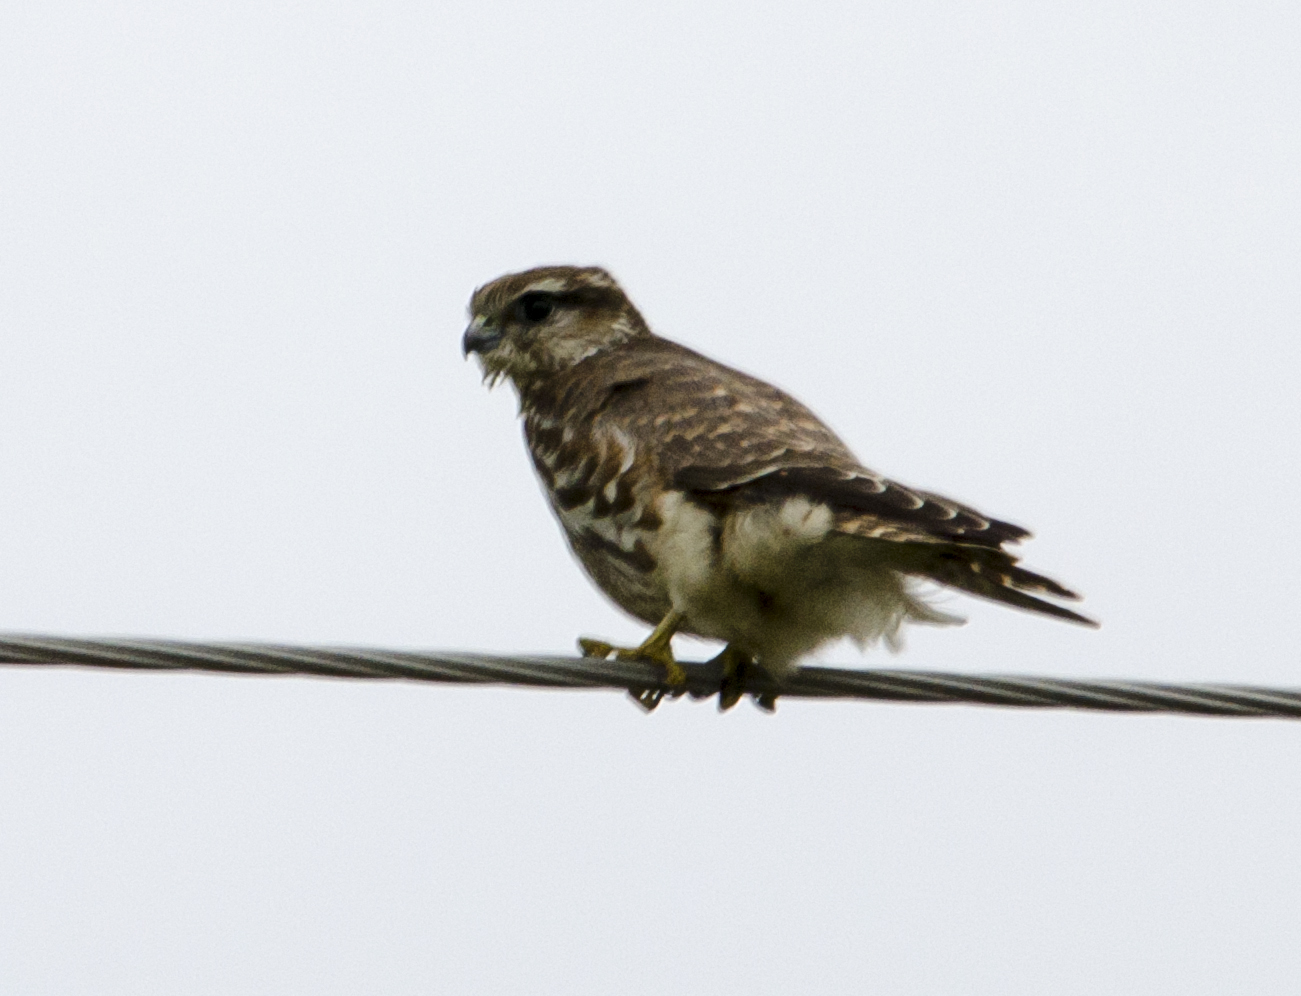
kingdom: Animalia
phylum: Chordata
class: Aves
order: Falconiformes
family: Falconidae
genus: Falco
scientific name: Falco columbarius
